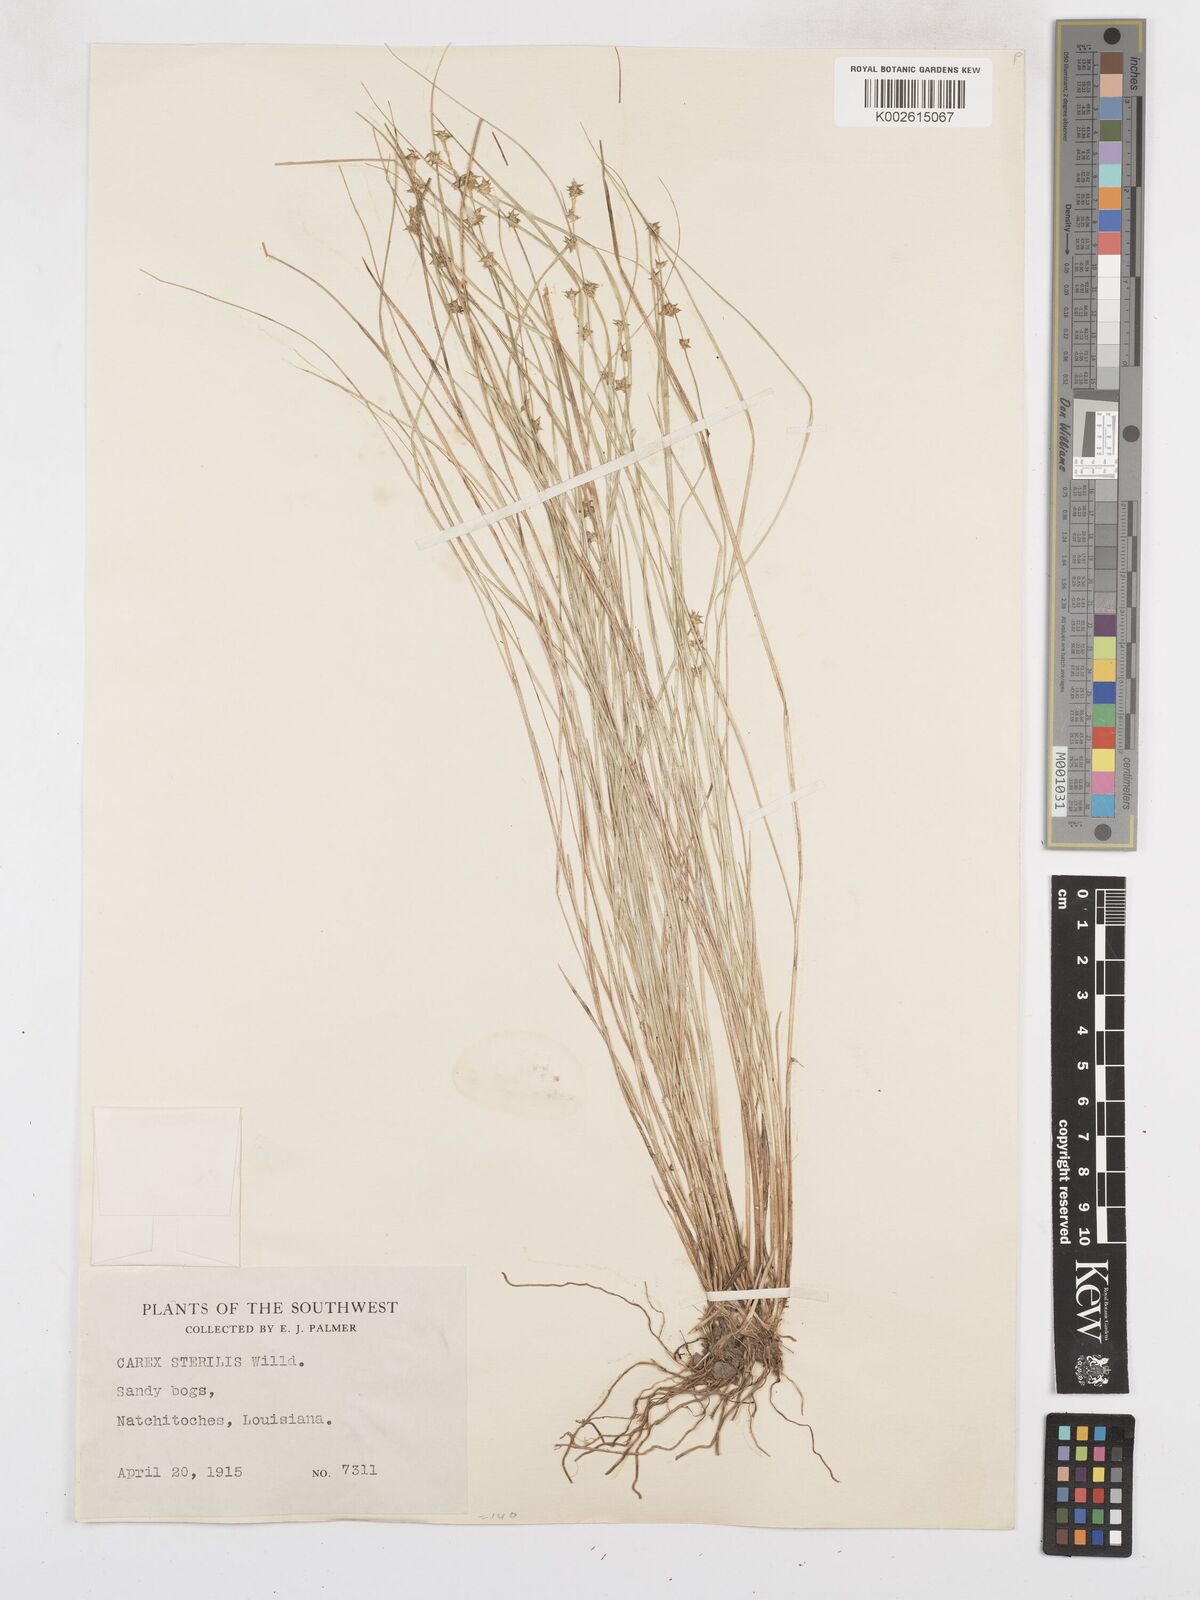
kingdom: Plantae
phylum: Tracheophyta
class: Liliopsida
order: Poales
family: Cyperaceae
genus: Carex
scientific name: Carex sterilis
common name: Dioecious sedge
